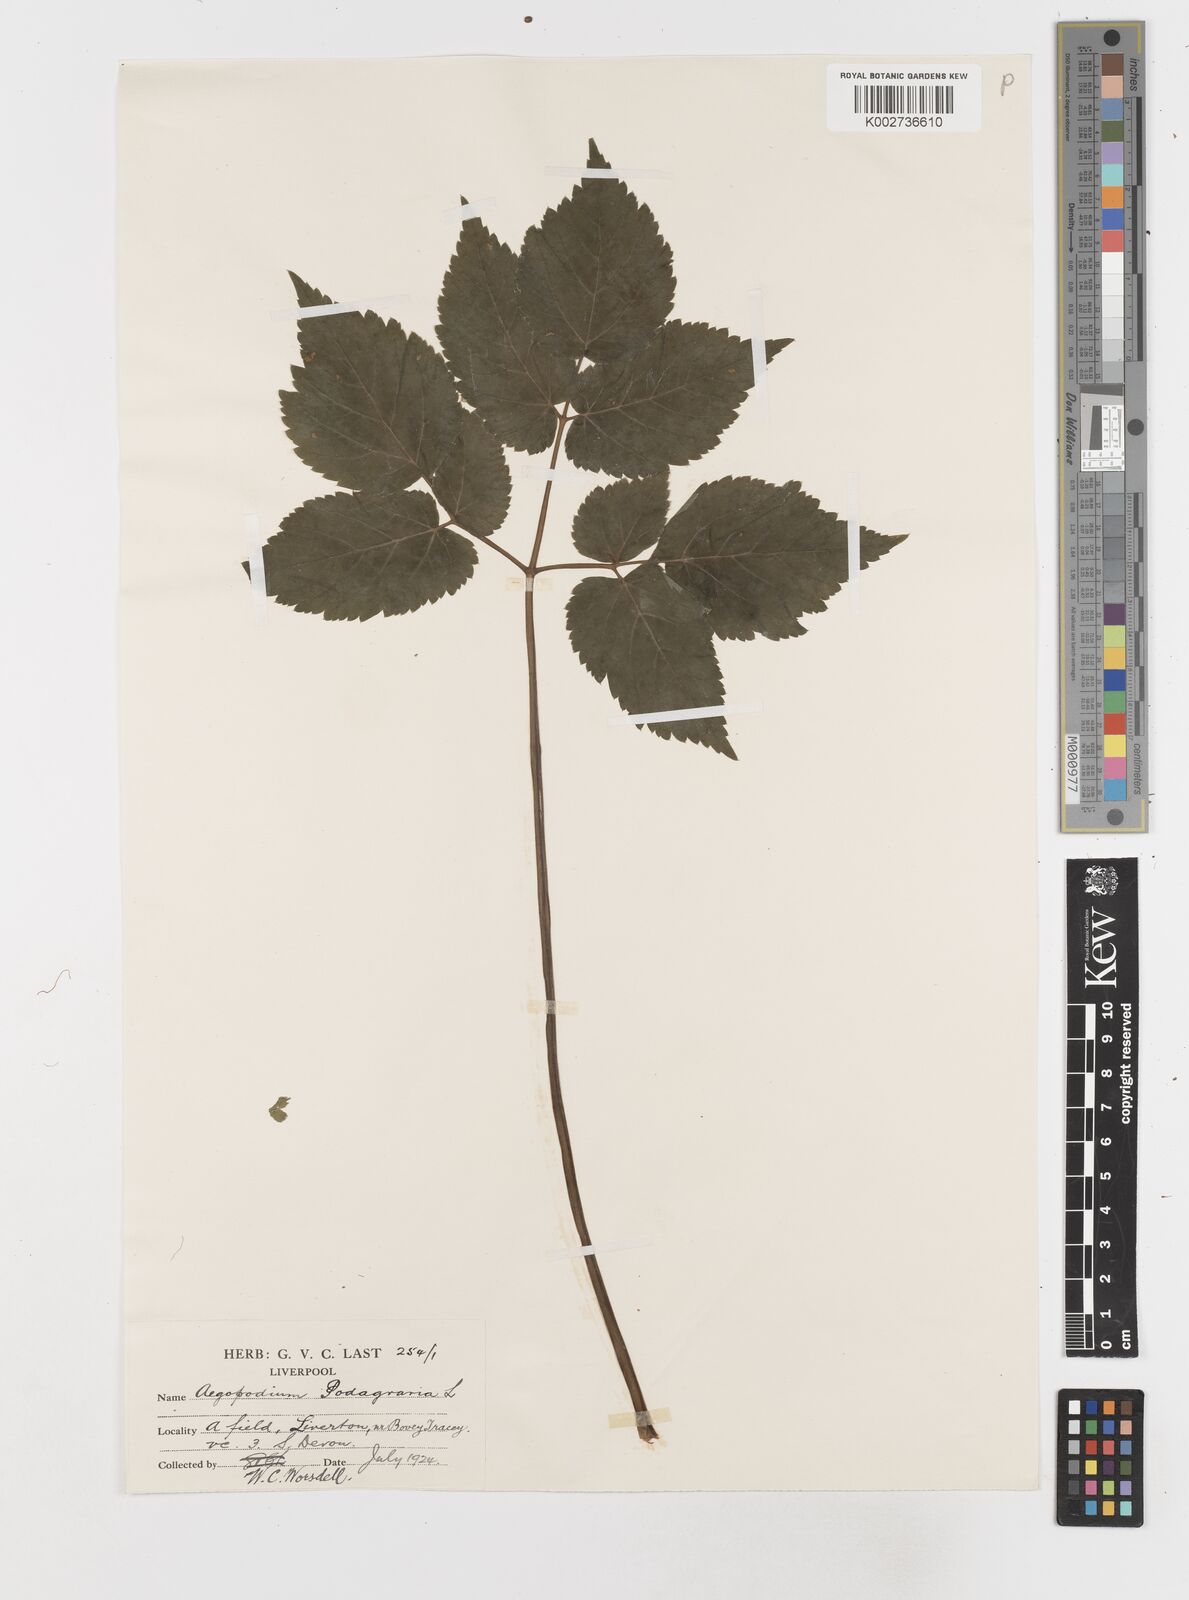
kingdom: Plantae
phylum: Tracheophyta
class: Magnoliopsida
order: Apiales
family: Apiaceae
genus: Aegopodium
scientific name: Aegopodium podagraria
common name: Ground-elder
